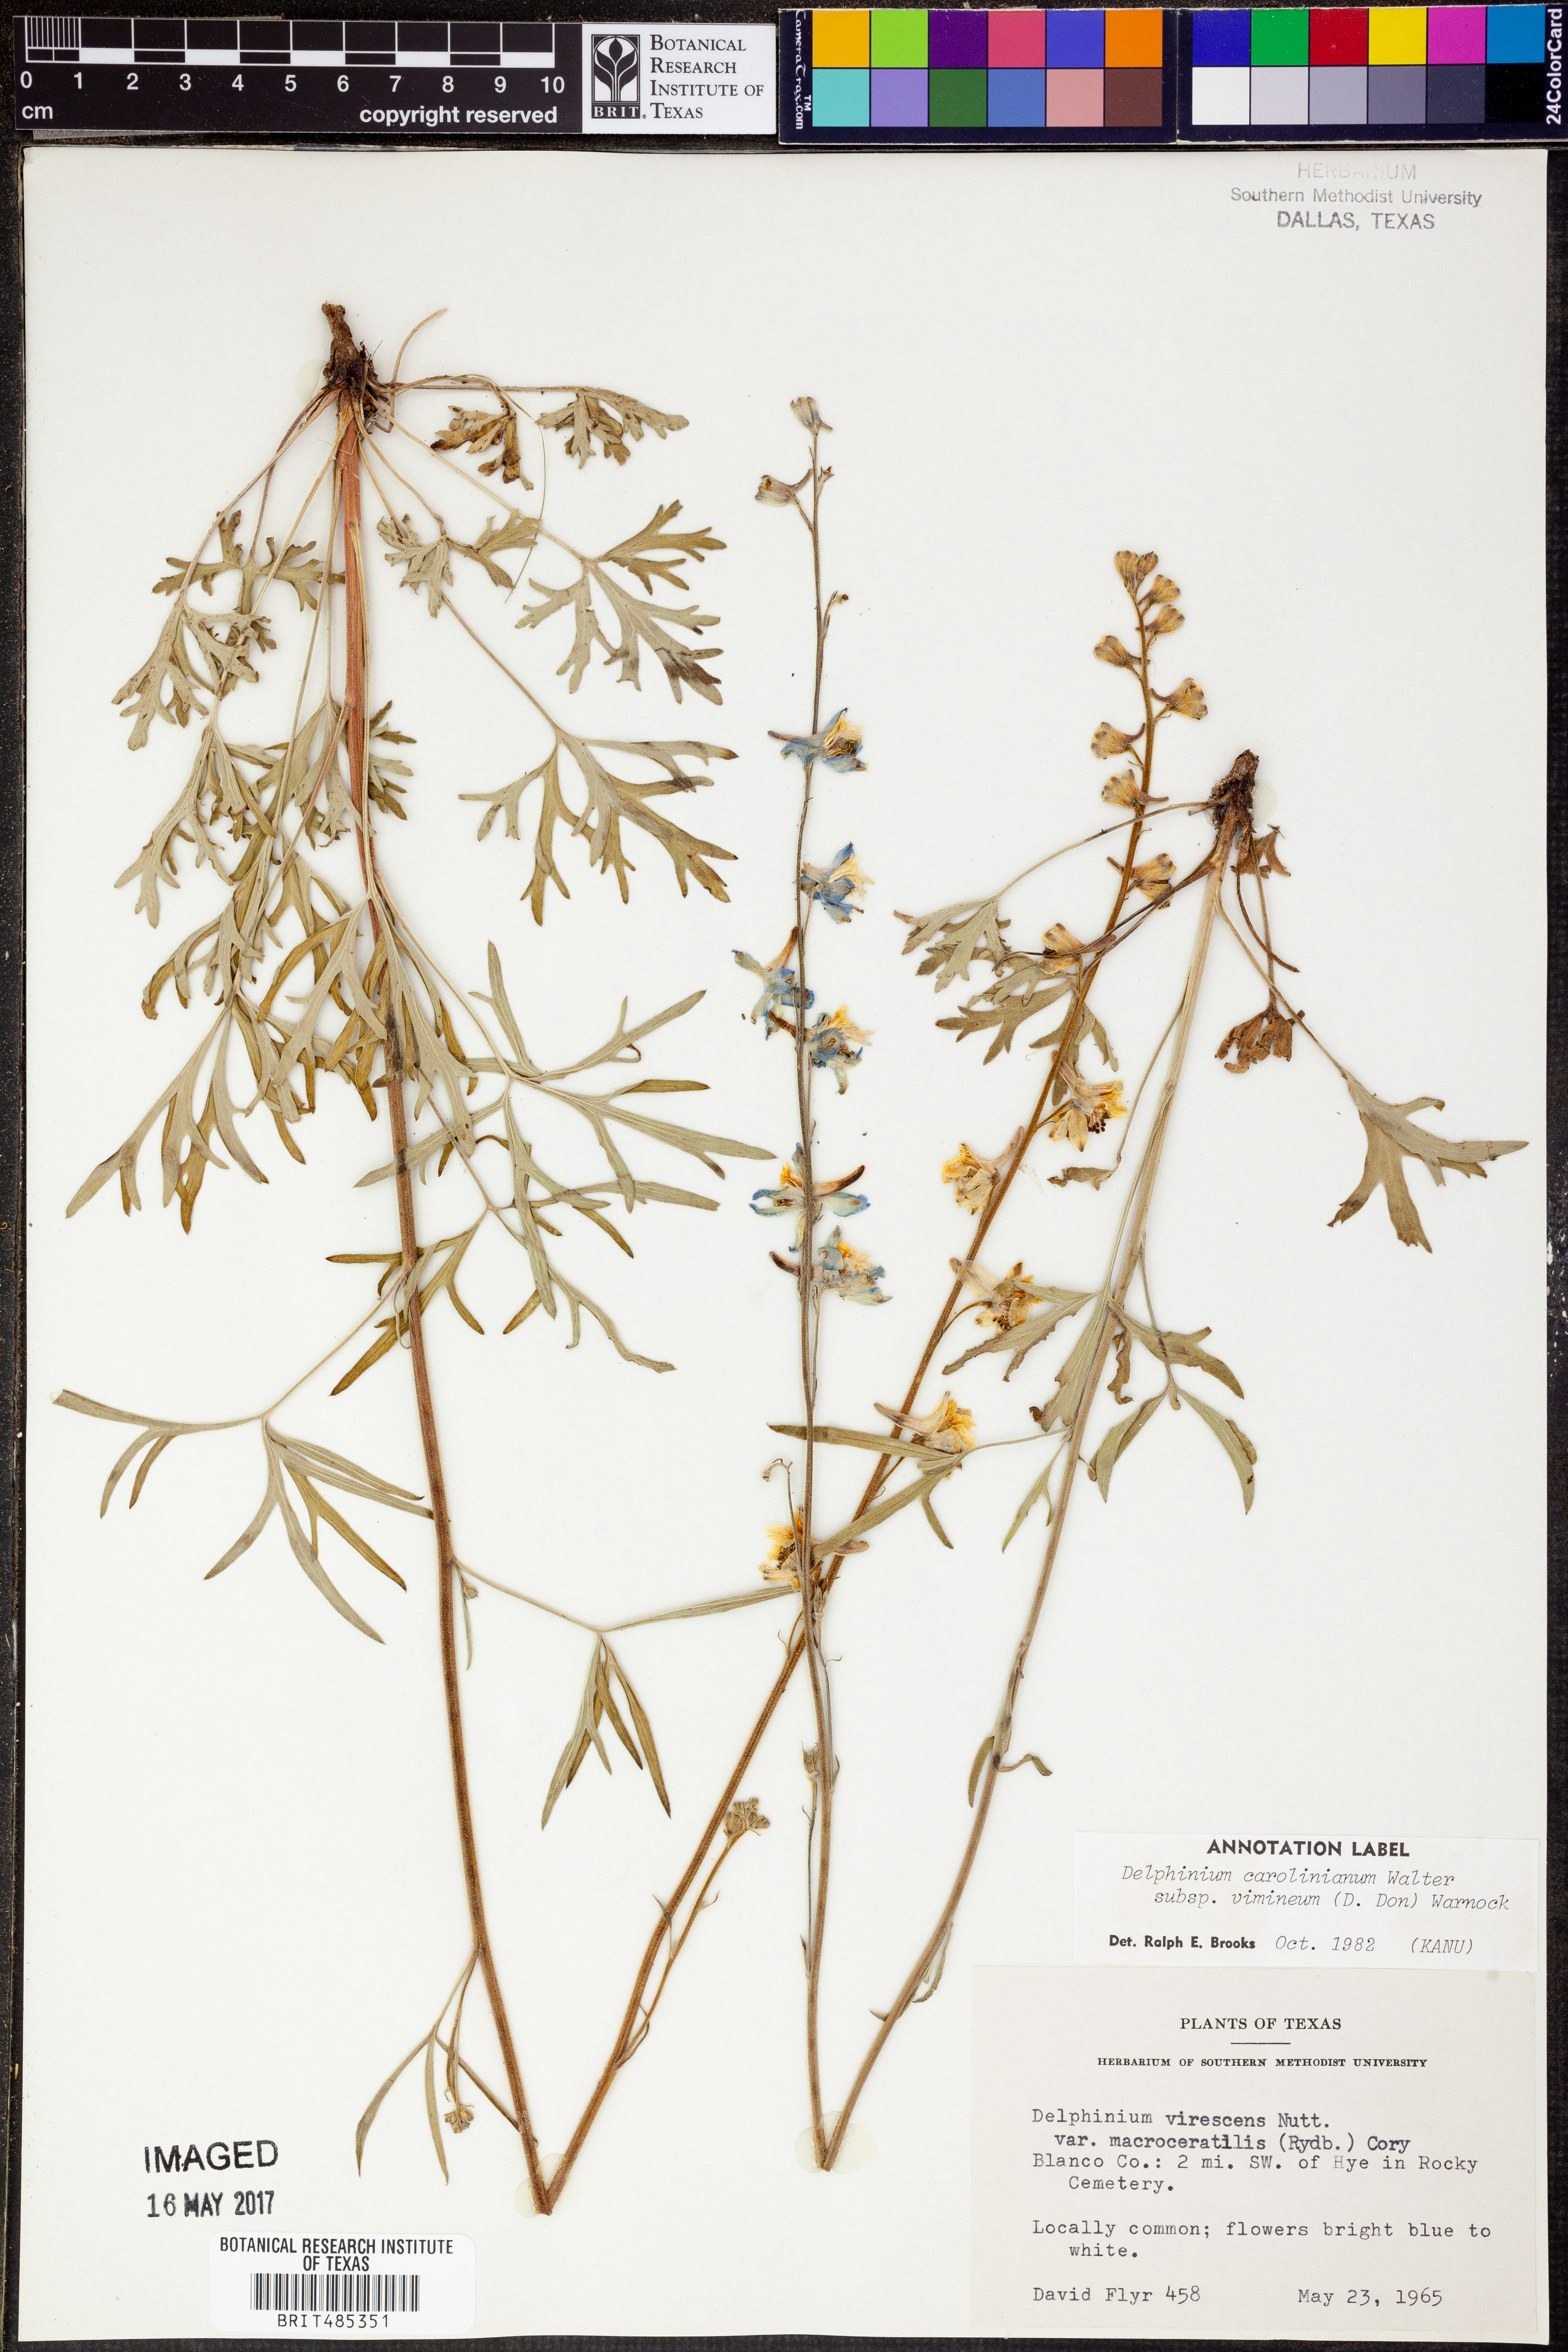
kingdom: Plantae
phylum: Tracheophyta
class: Magnoliopsida
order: Ranunculales
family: Ranunculaceae
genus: Delphinium
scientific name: Delphinium carolinianum
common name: Carolina larkspur
